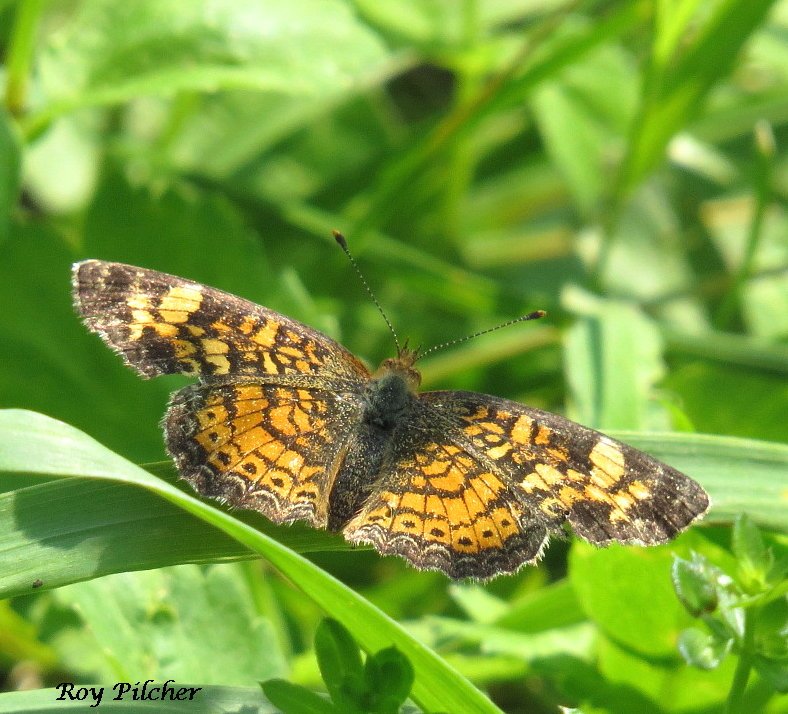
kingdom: Animalia
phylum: Arthropoda
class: Insecta
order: Lepidoptera
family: Nymphalidae
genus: Phyciodes
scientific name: Phyciodes tharos
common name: Pearl Crescent
